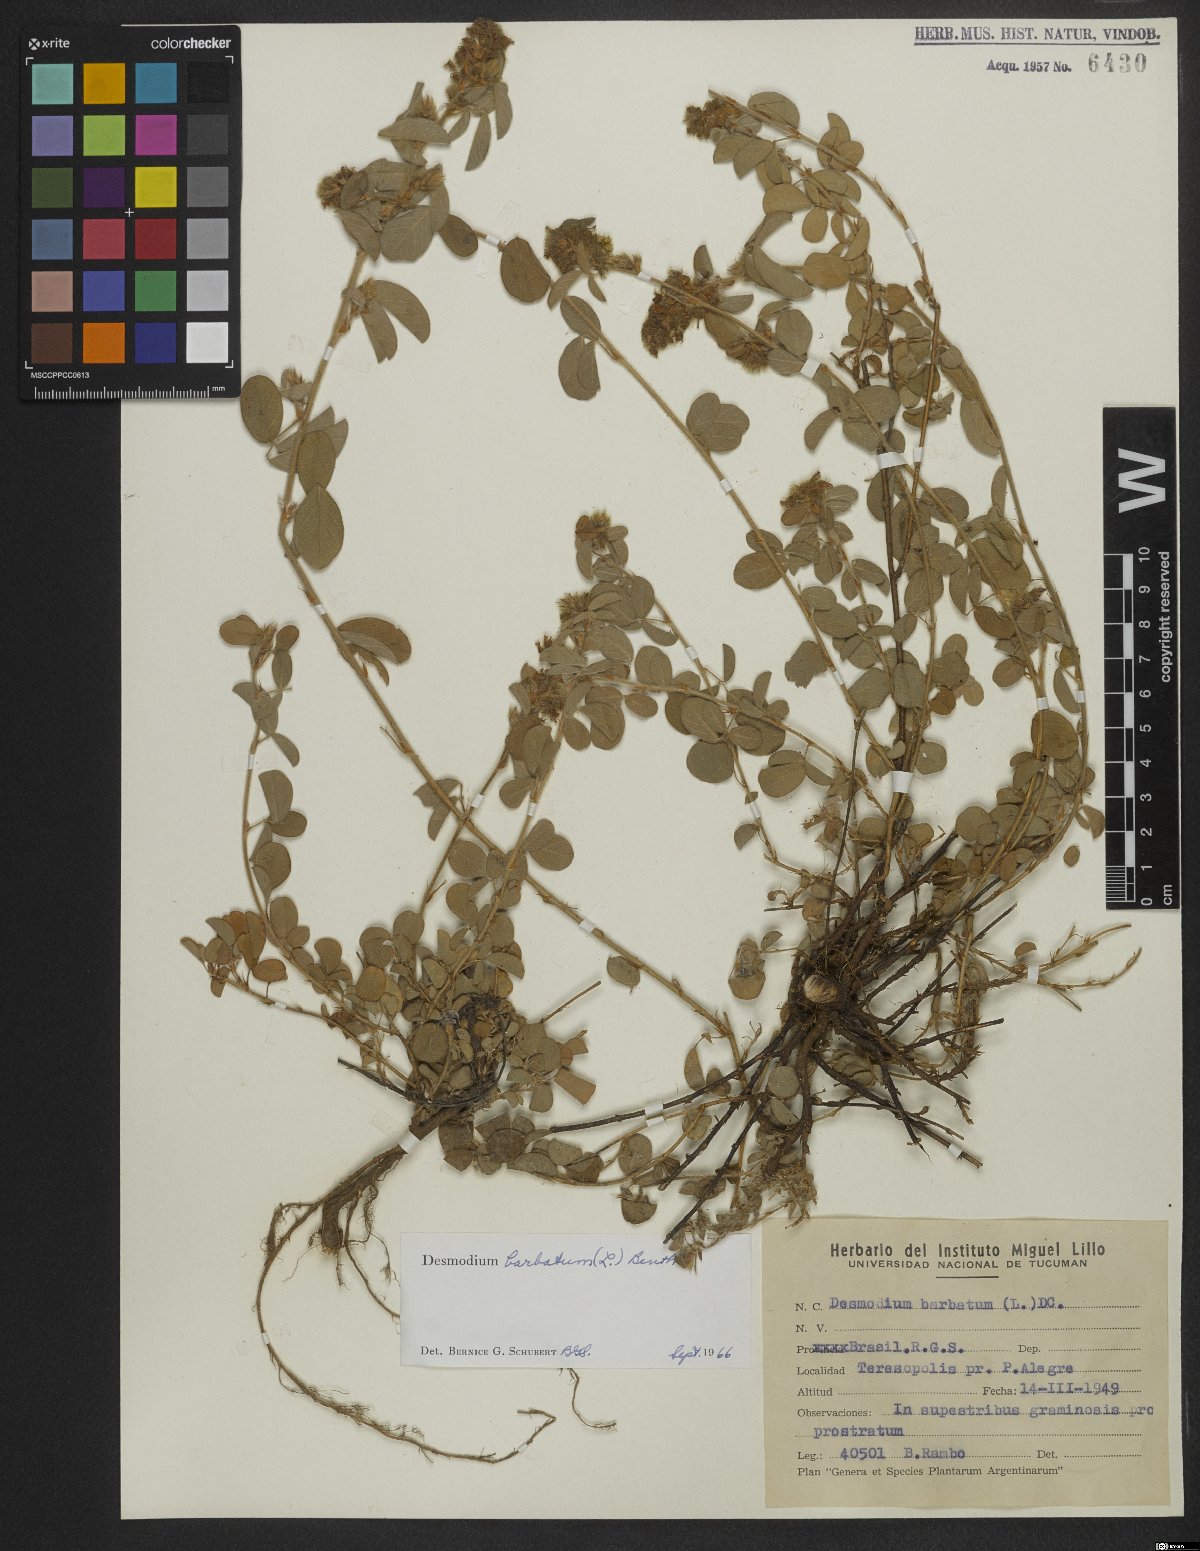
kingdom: Plantae
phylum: Tracheophyta
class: Magnoliopsida
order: Fabales
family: Fabaceae
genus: Grona
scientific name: Grona barbata
